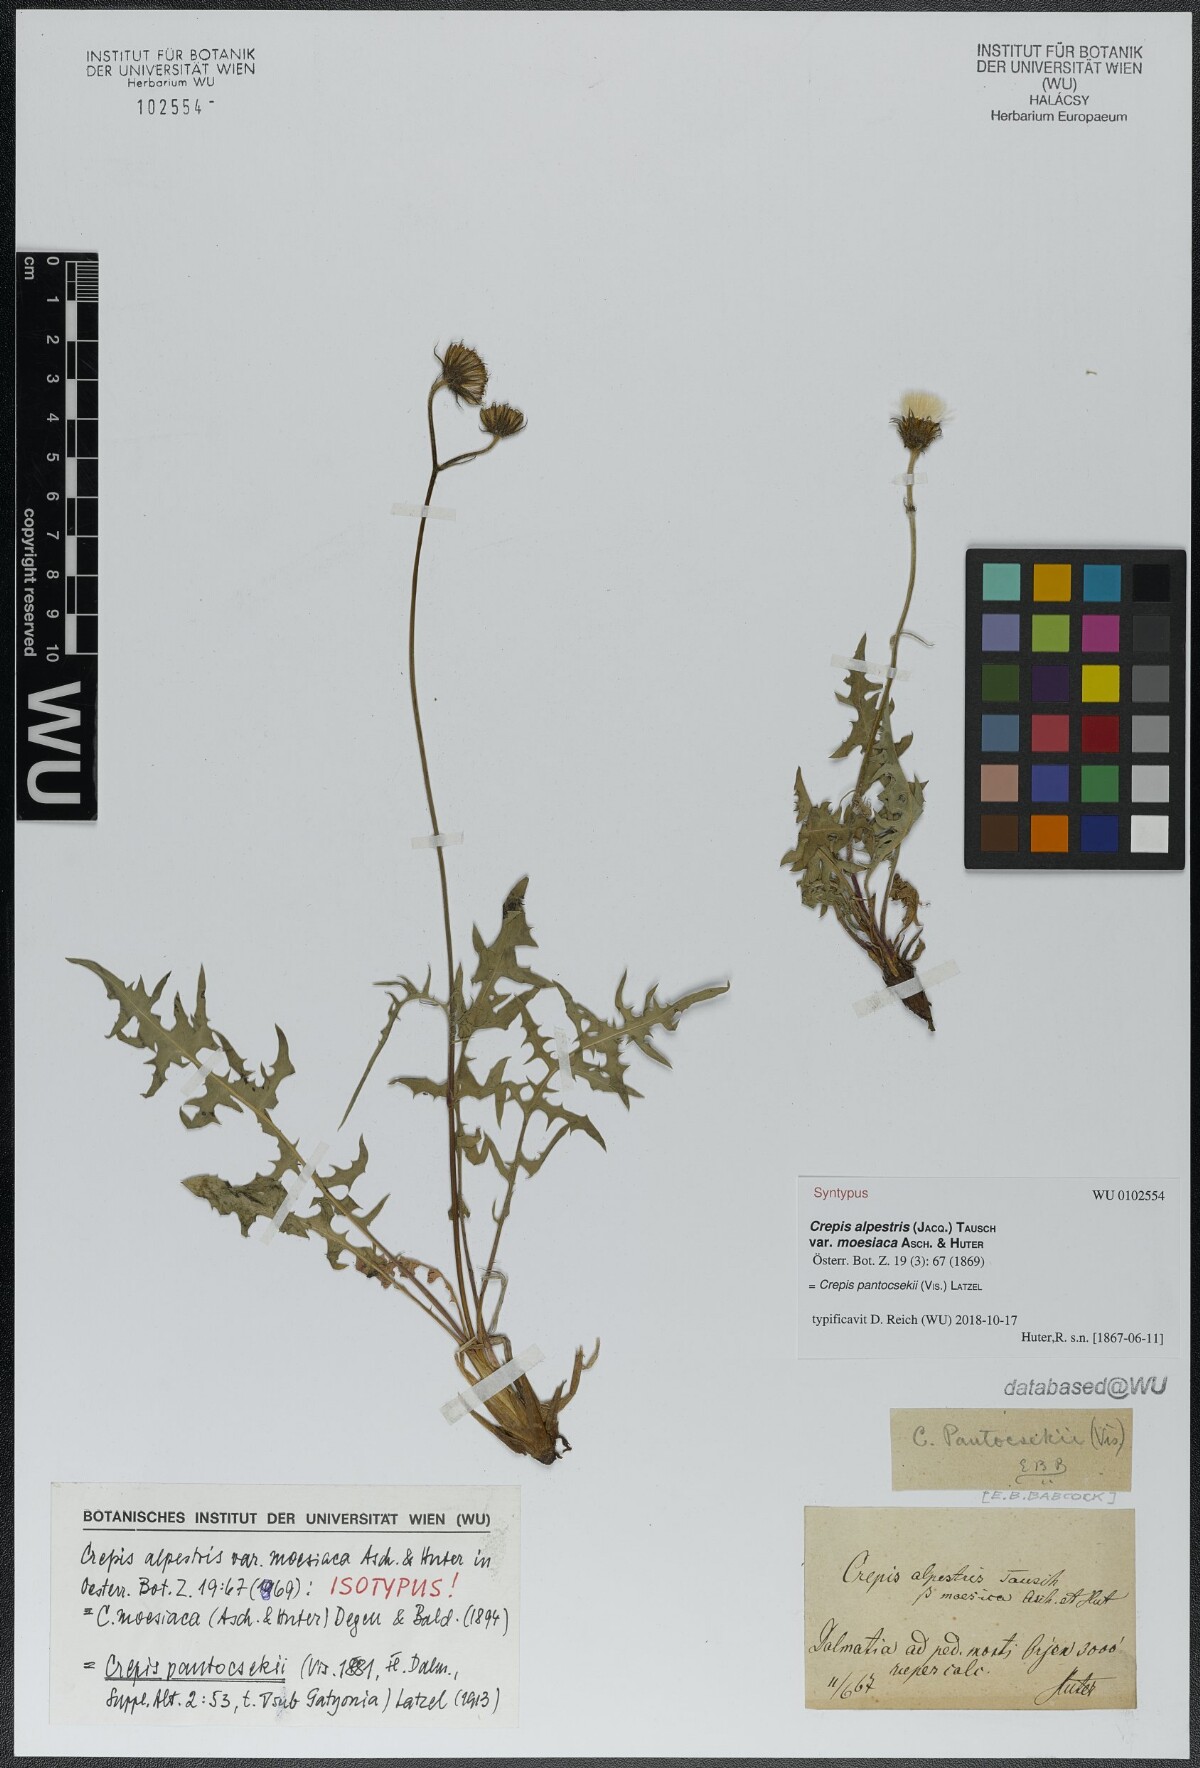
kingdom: Plantae
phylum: Tracheophyta
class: Magnoliopsida
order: Asterales
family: Asteraceae
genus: Crepis
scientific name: Crepis pantocsekii
